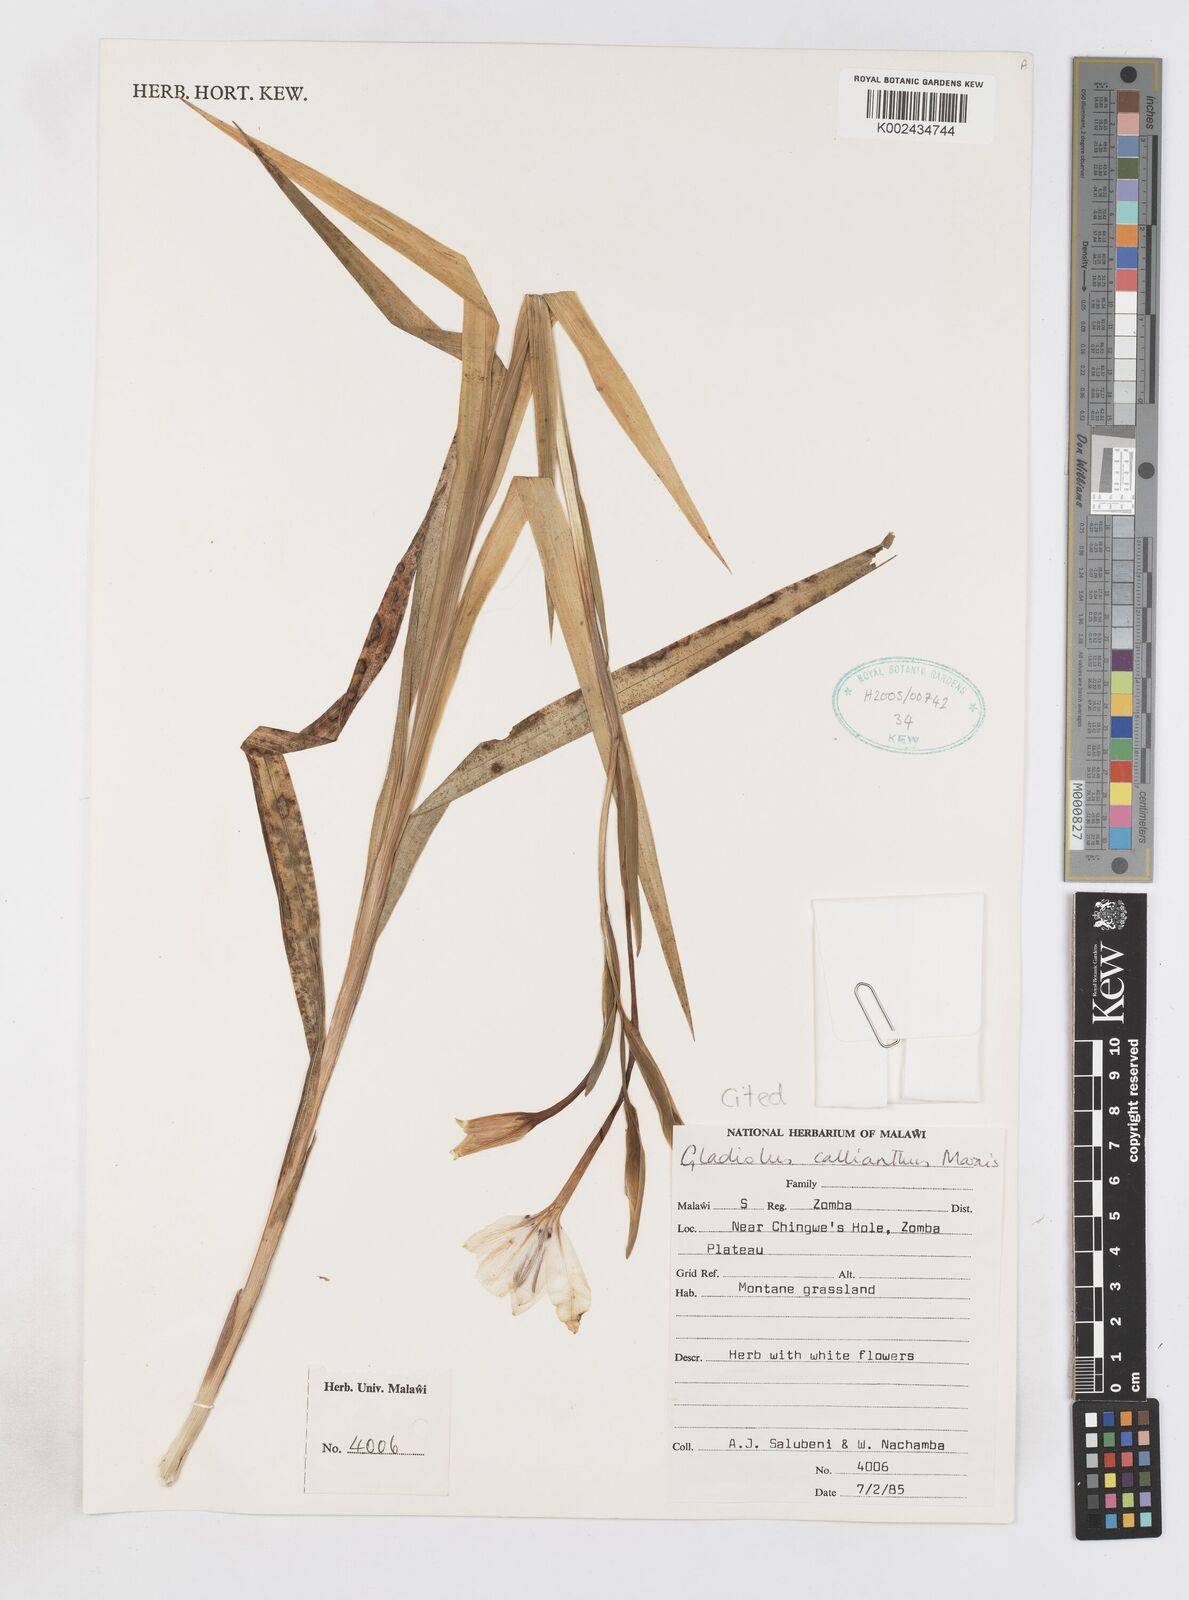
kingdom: Plantae
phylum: Tracheophyta
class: Liliopsida
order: Asparagales
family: Iridaceae
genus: Gladiolus
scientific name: Gladiolus murielae
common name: Acidanthera
